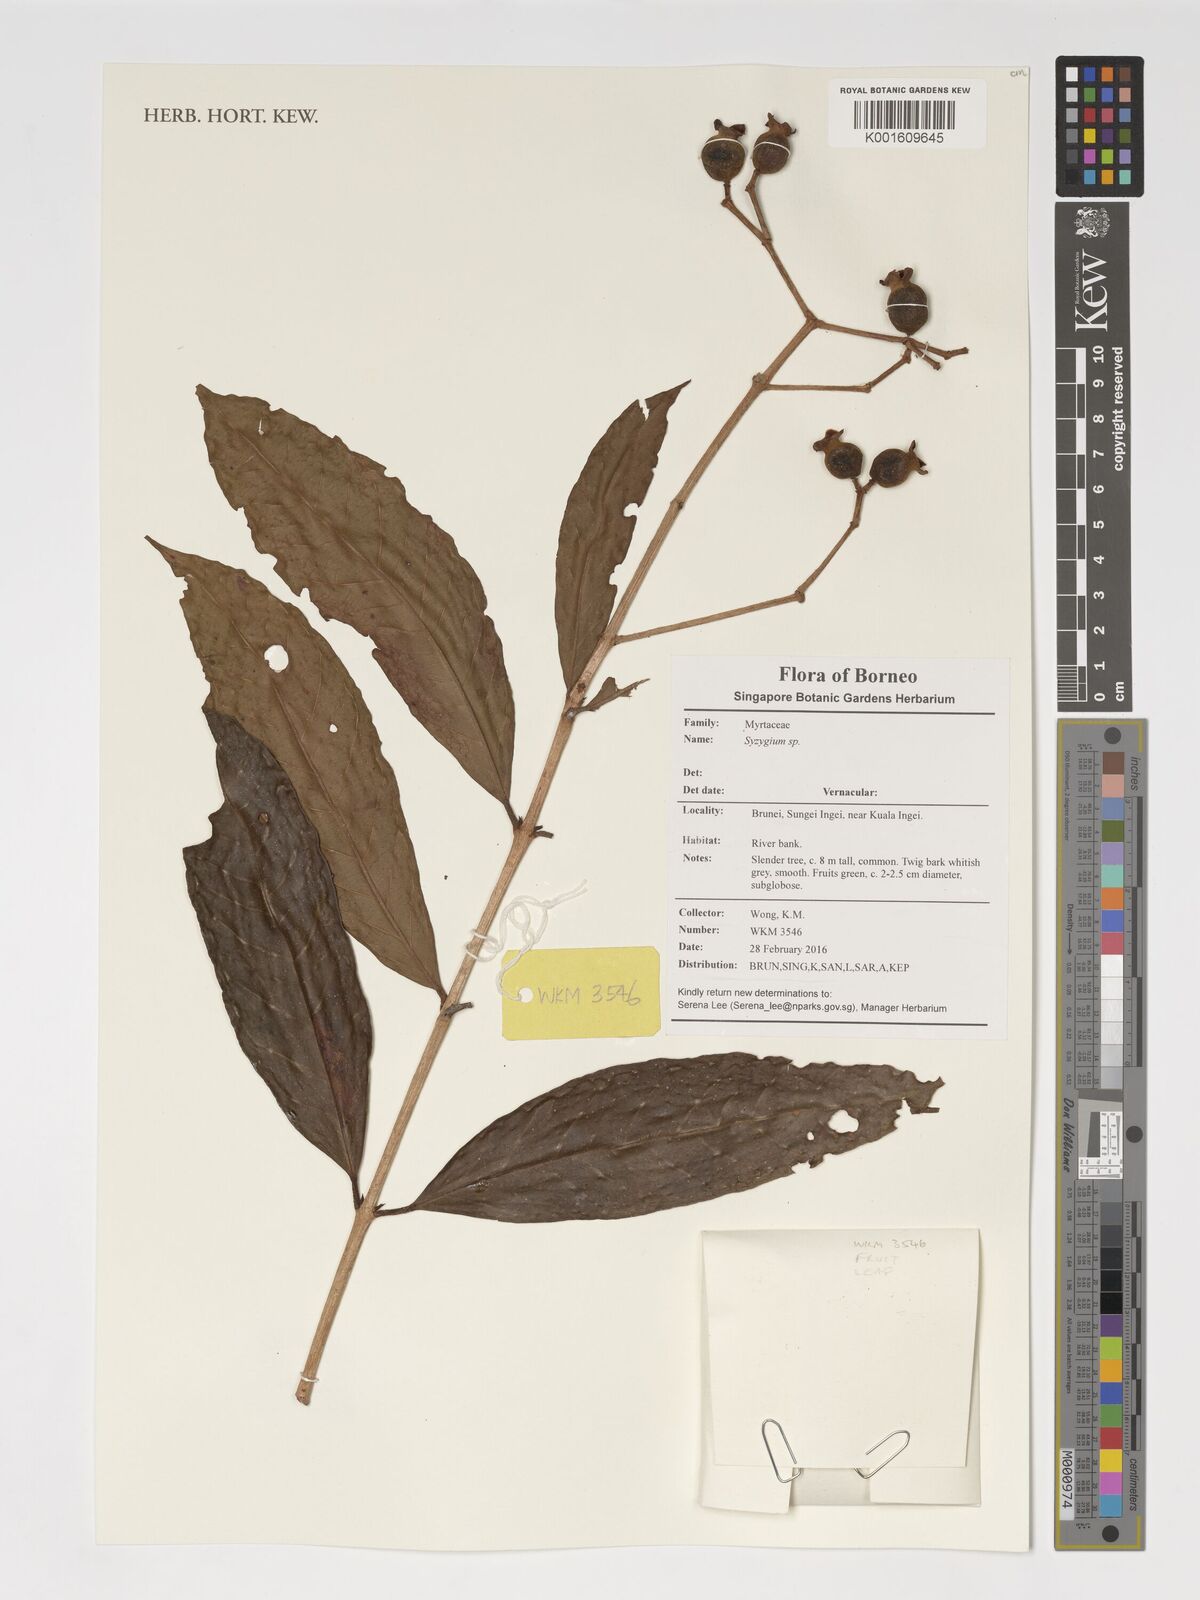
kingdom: Plantae
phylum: Tracheophyta
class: Magnoliopsida
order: Myrtales
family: Myrtaceae
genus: Syzygium
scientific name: Syzygium
